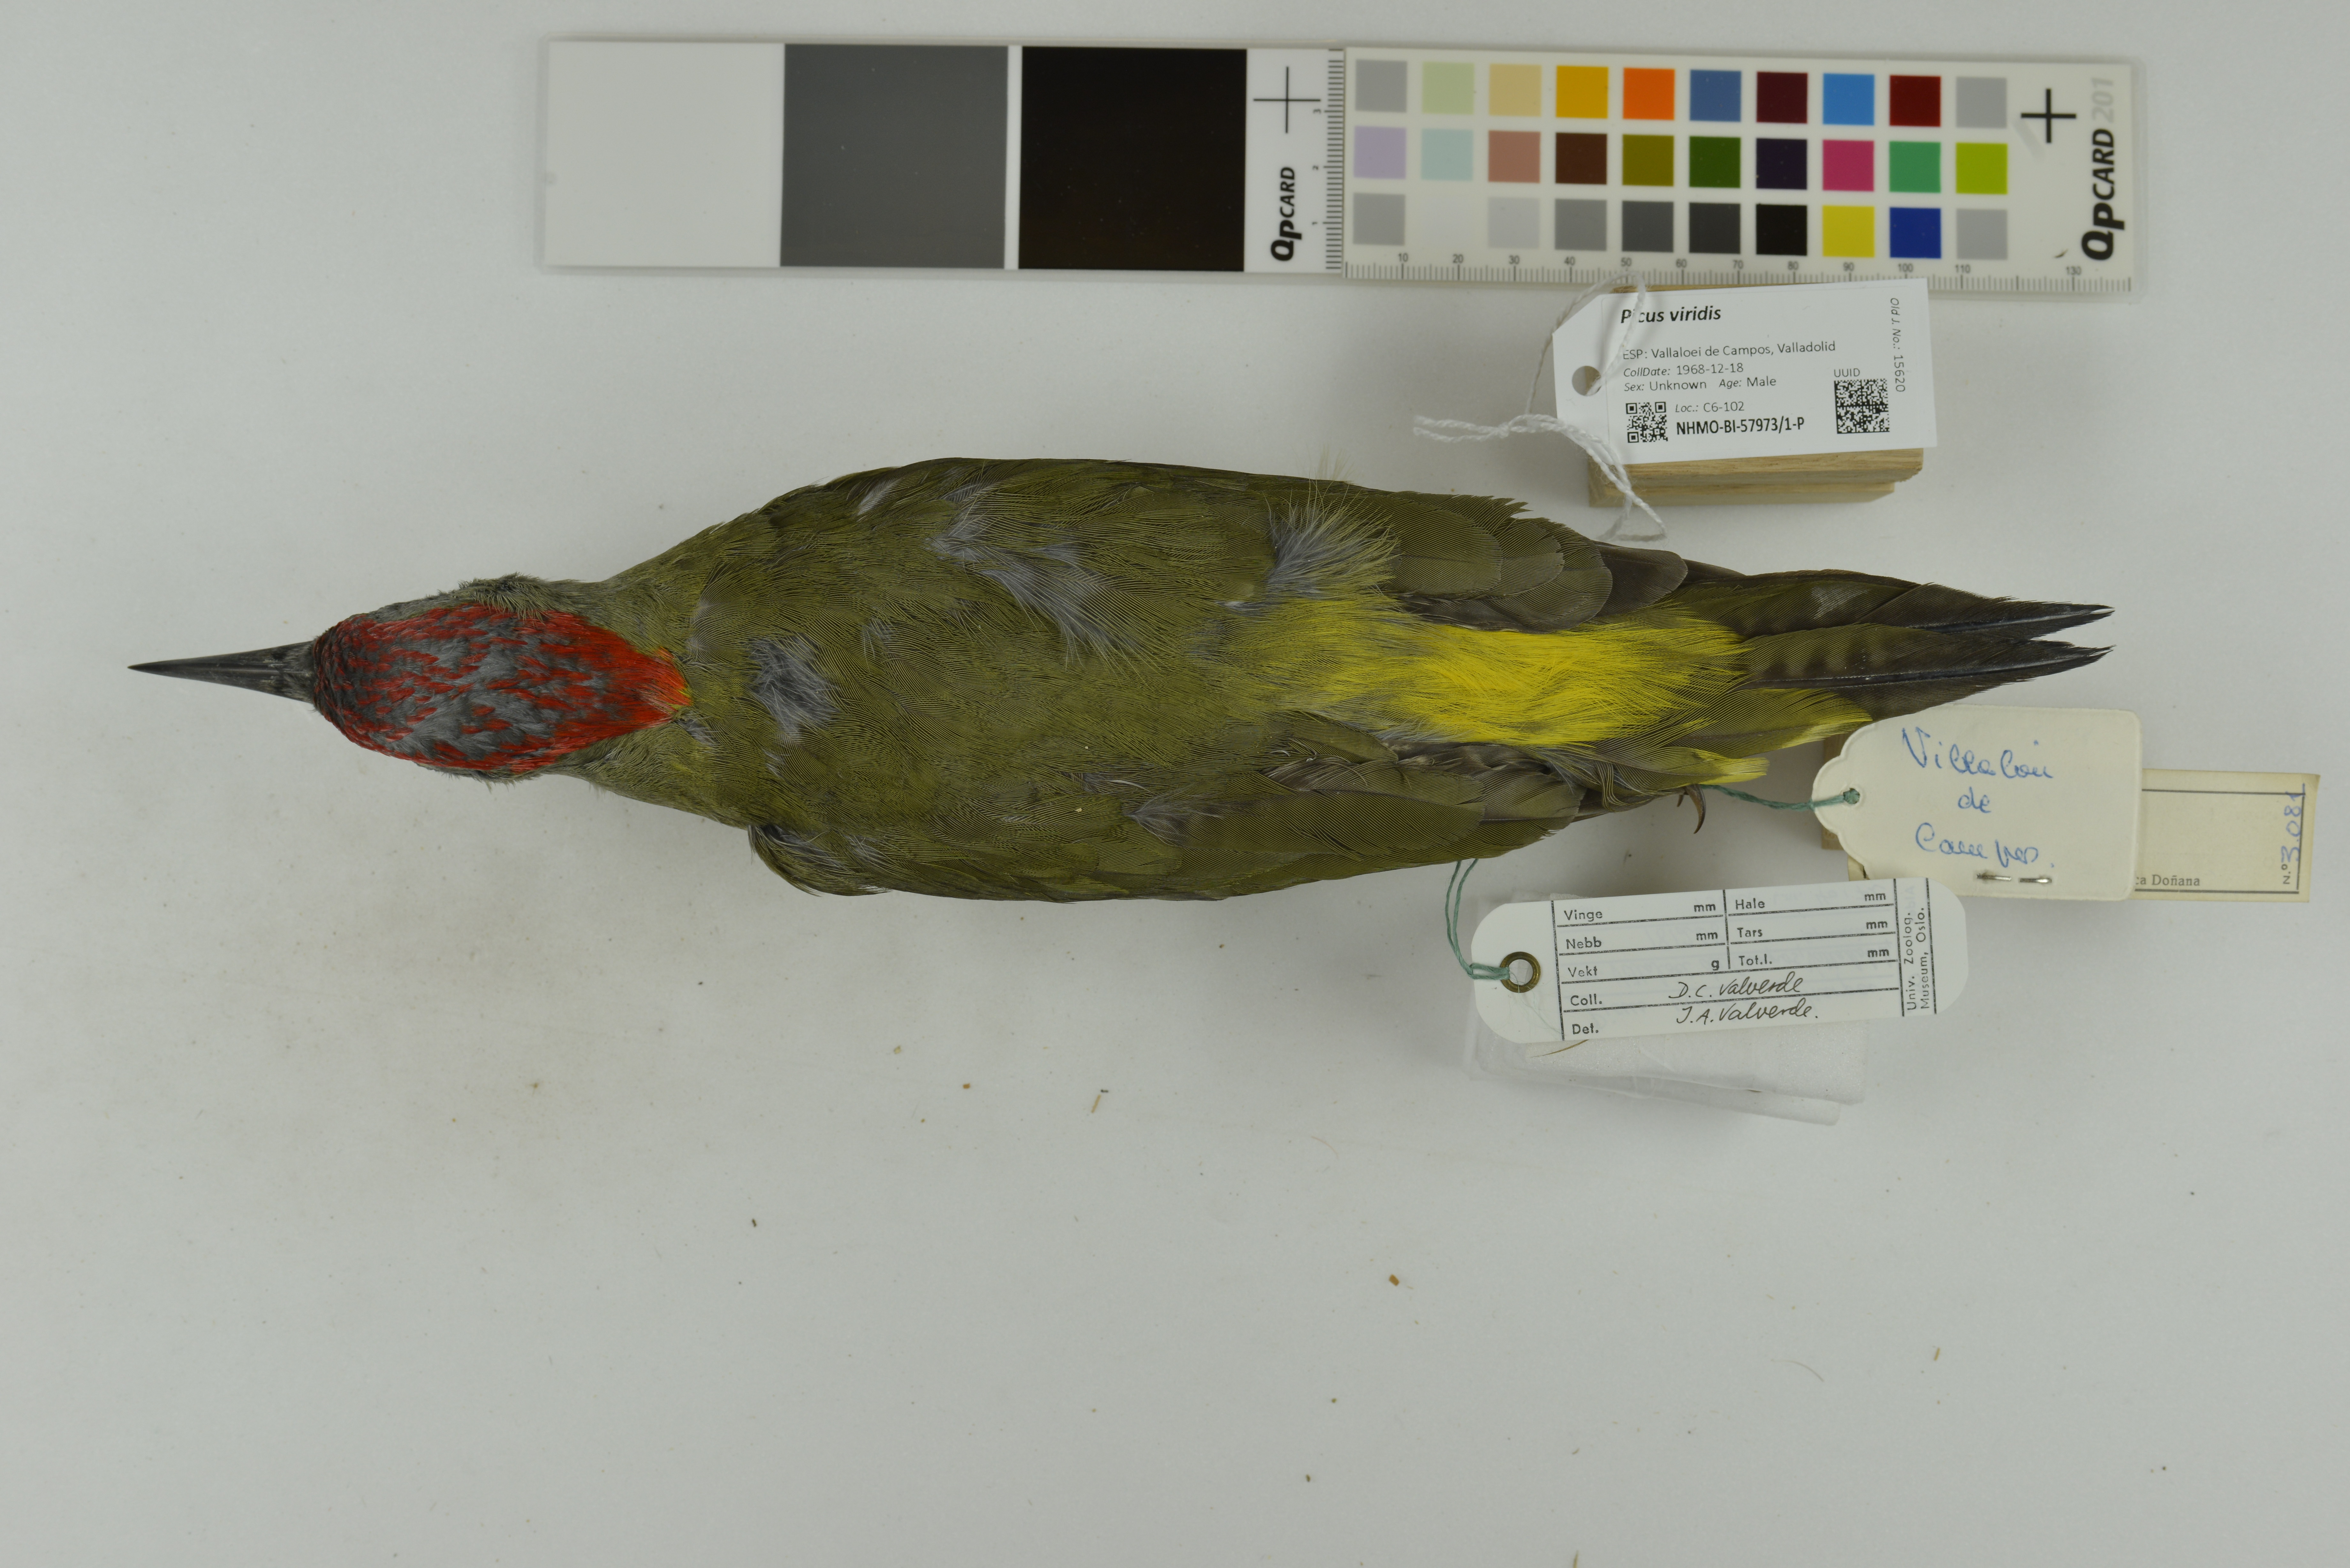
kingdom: Animalia
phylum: Chordata
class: Aves
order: Piciformes
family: Picidae
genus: Picus
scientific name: Picus viridis
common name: European green woodpecker
